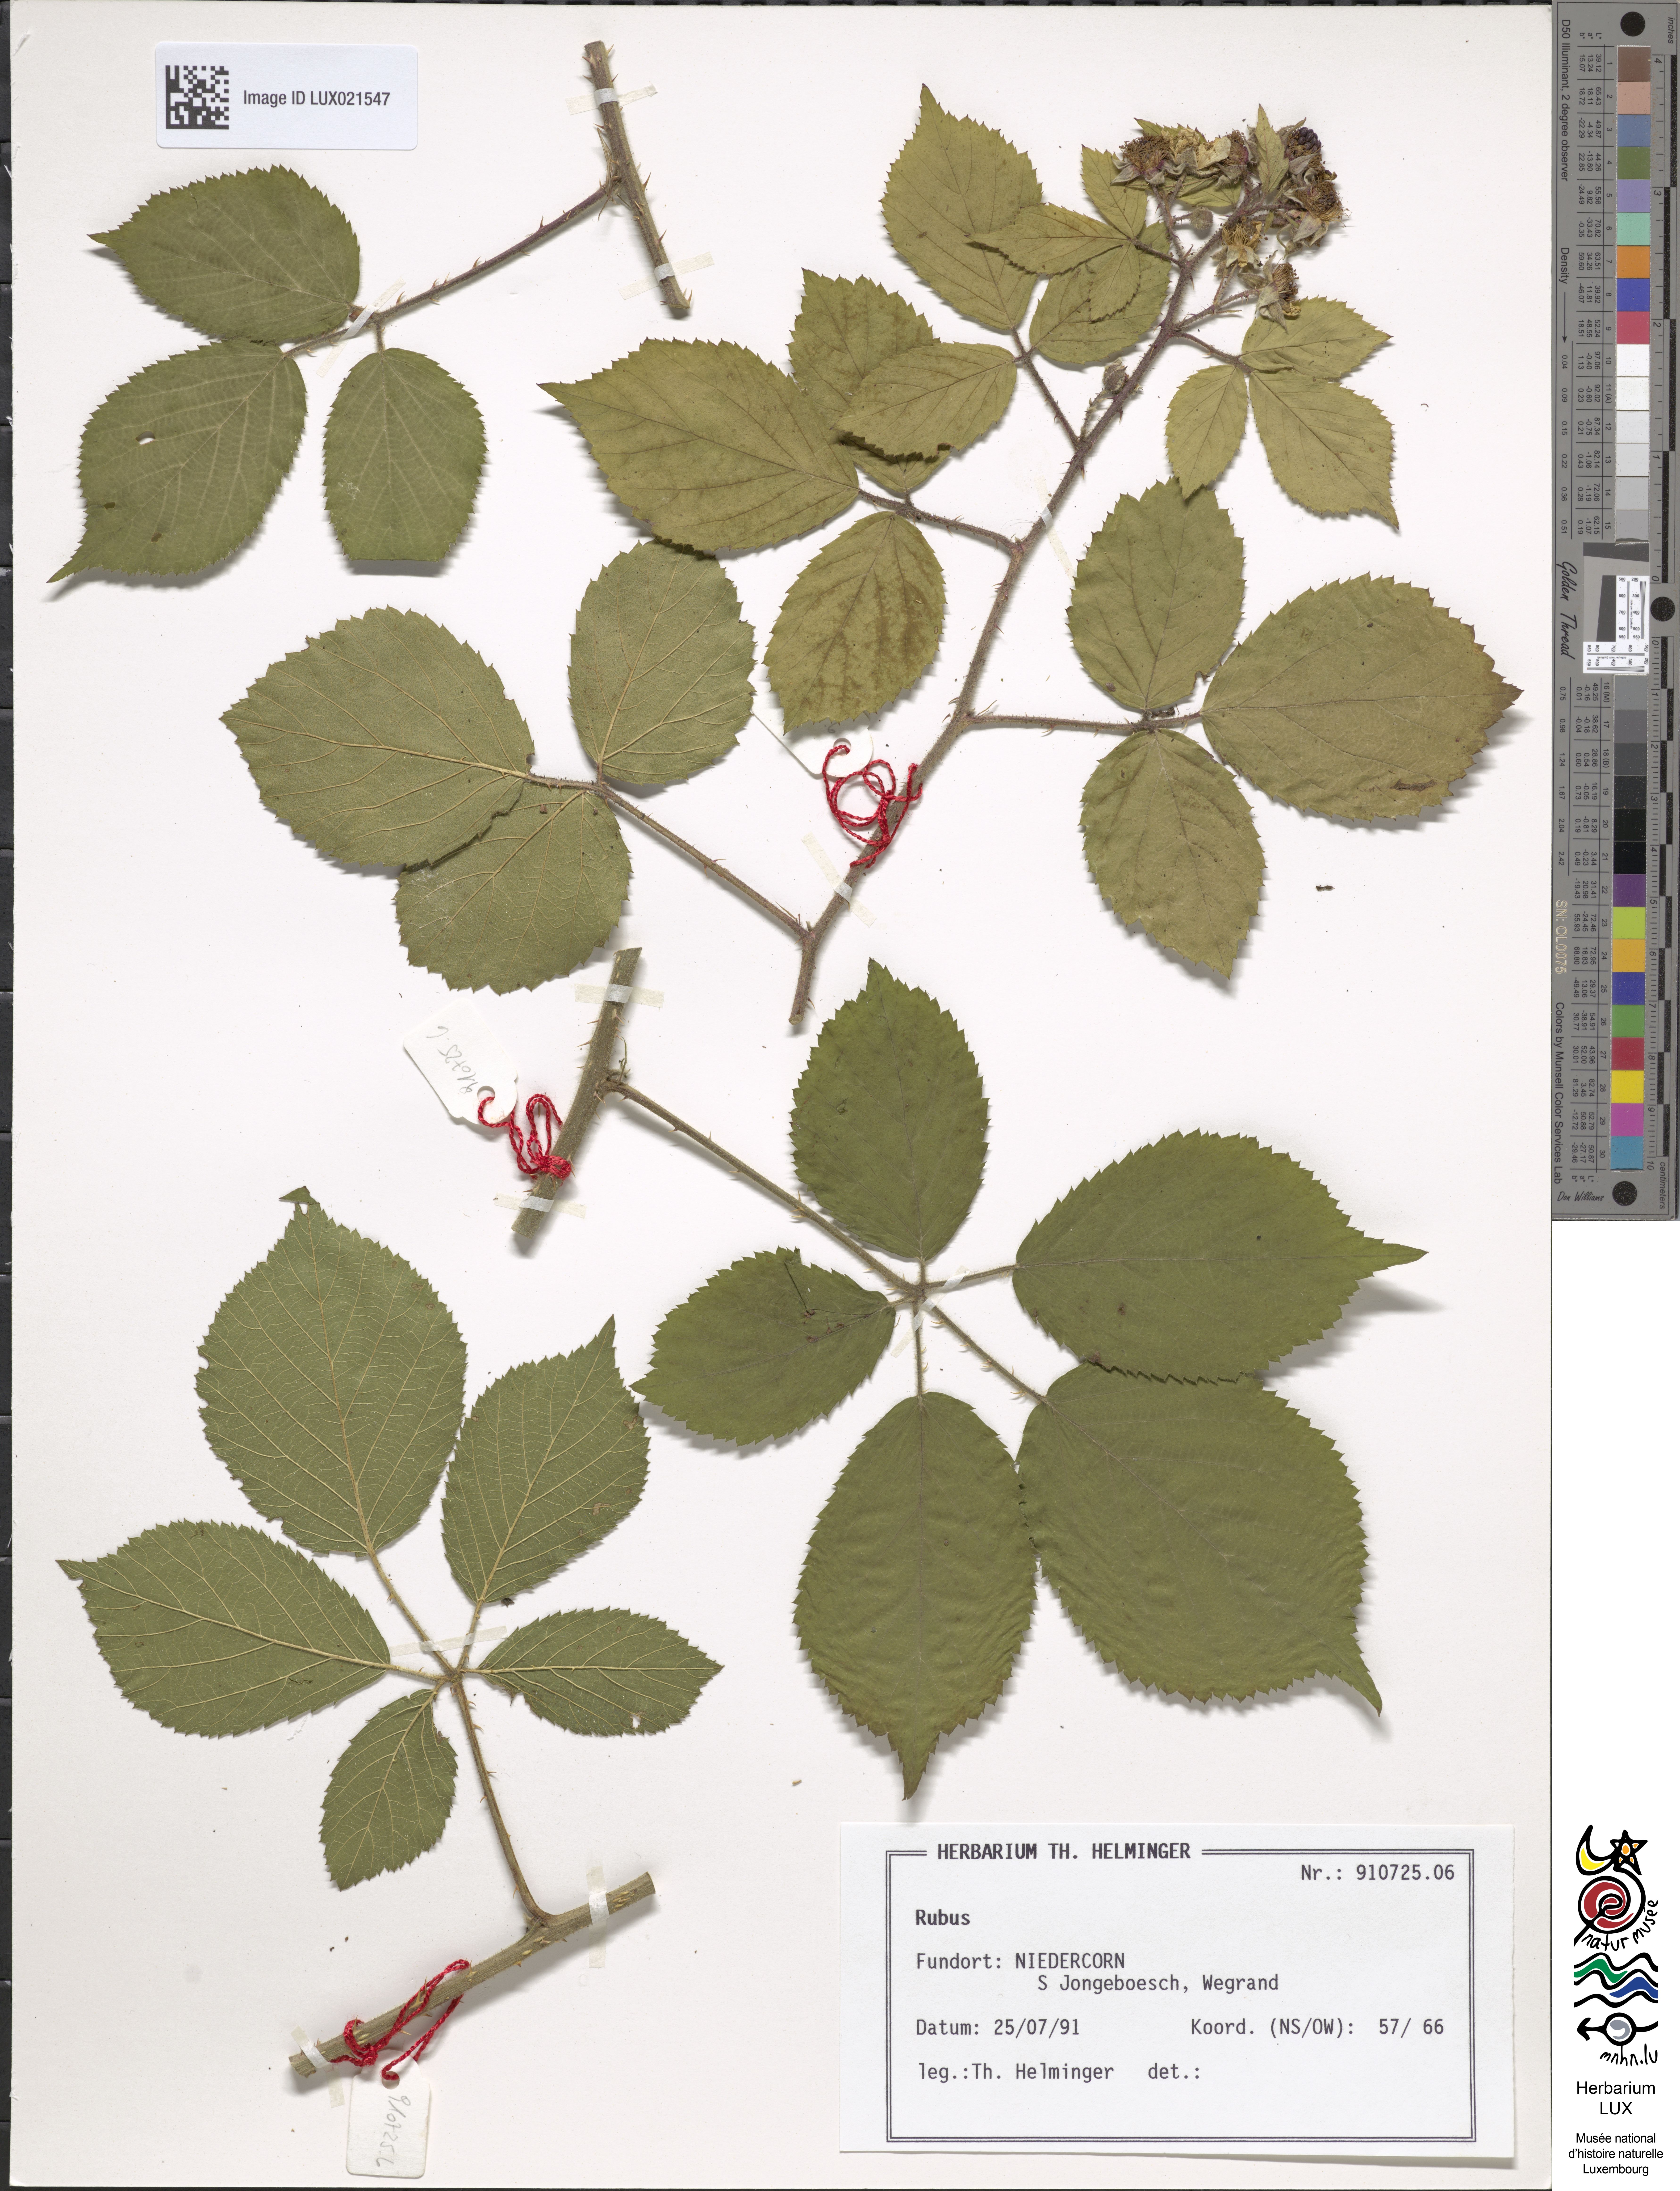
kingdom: Plantae
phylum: Tracheophyta
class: Magnoliopsida
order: Rosales
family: Rosaceae
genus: Rubus
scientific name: Rubus
